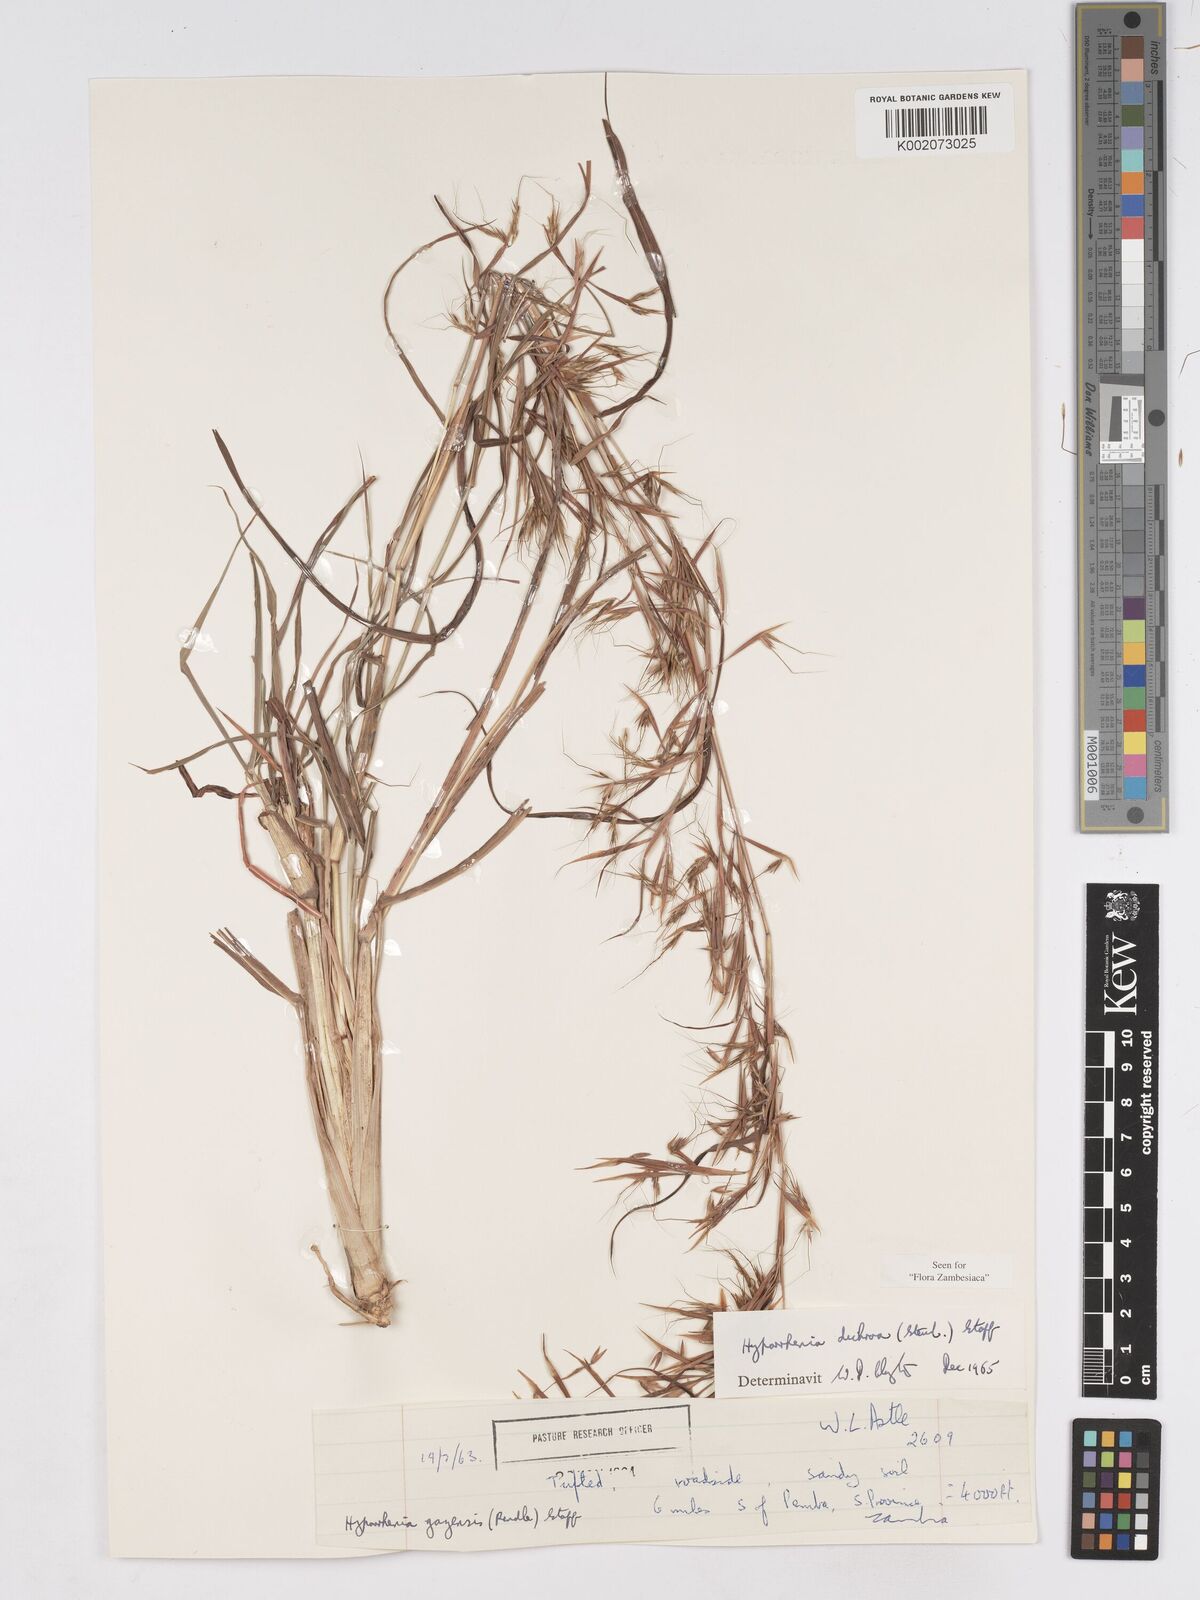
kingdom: Plantae
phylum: Tracheophyta
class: Liliopsida
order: Poales
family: Poaceae
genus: Hyparrhenia
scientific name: Hyparrhenia dichroa
